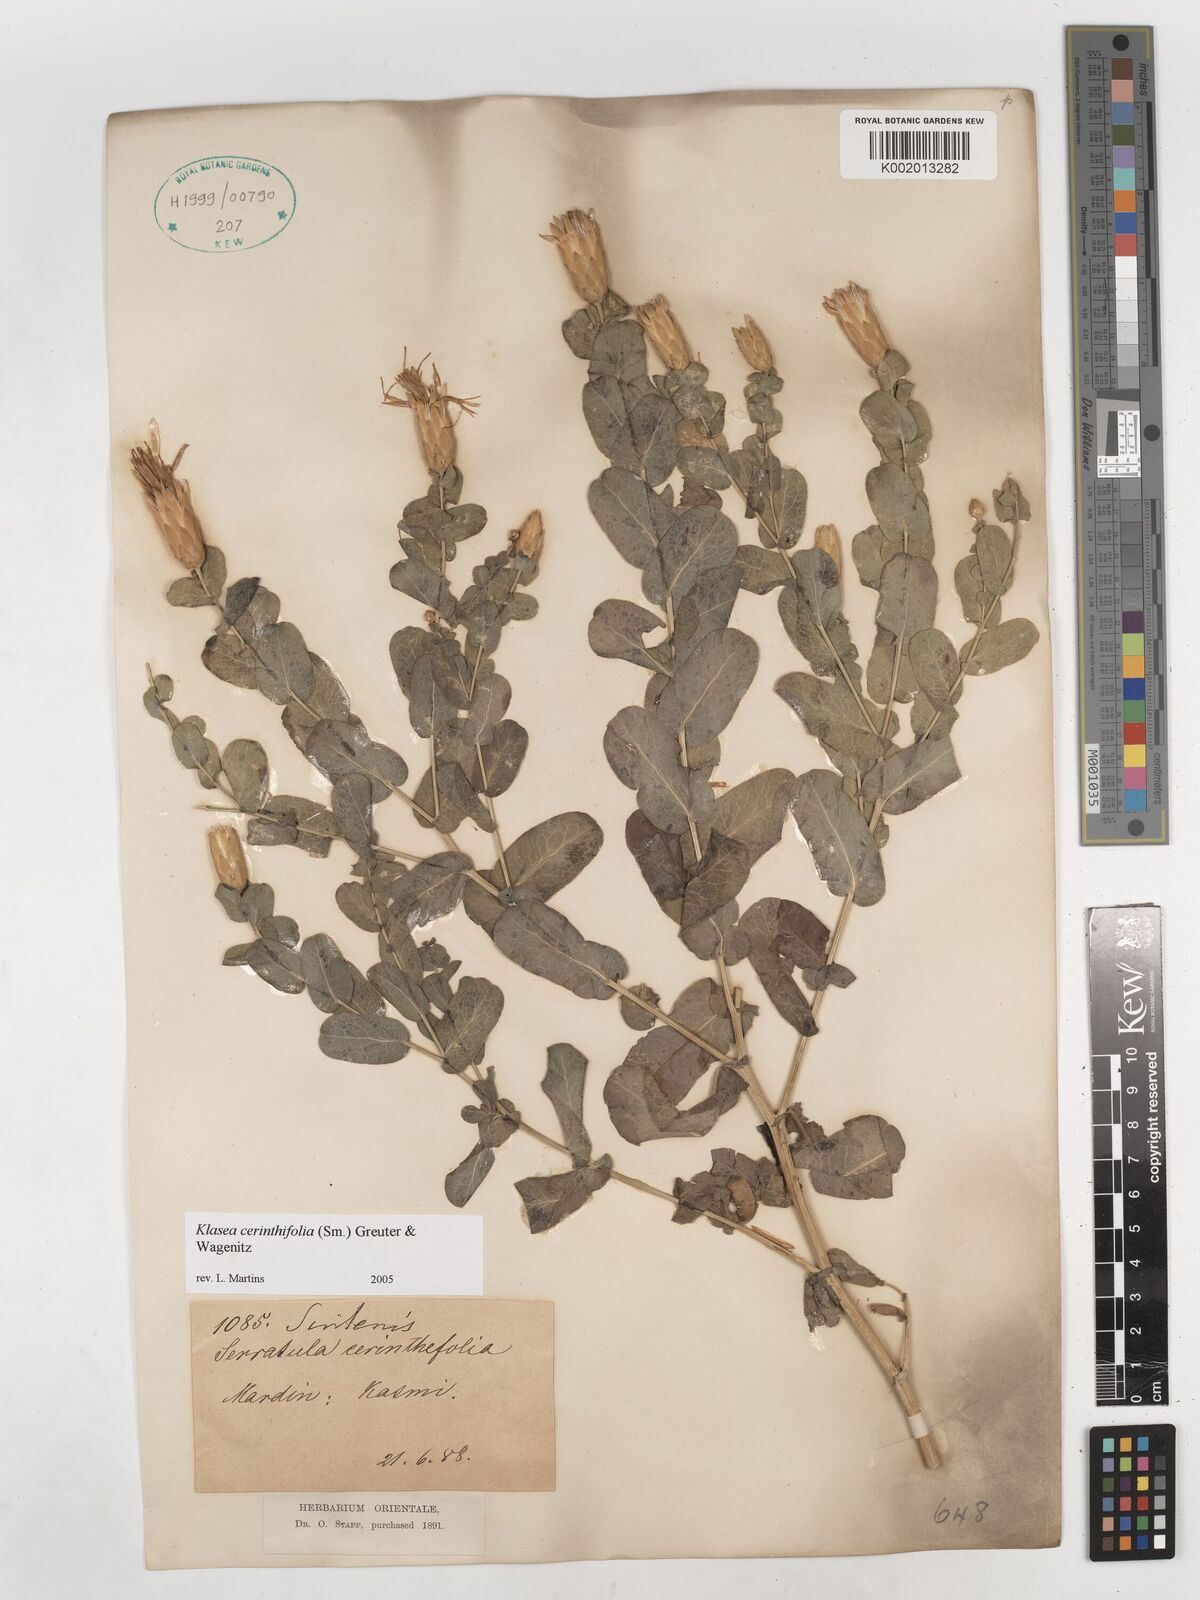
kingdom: Plantae
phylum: Tracheophyta
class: Magnoliopsida
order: Asterales
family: Asteraceae
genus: Klasea
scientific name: Klasea cerinthifolia
